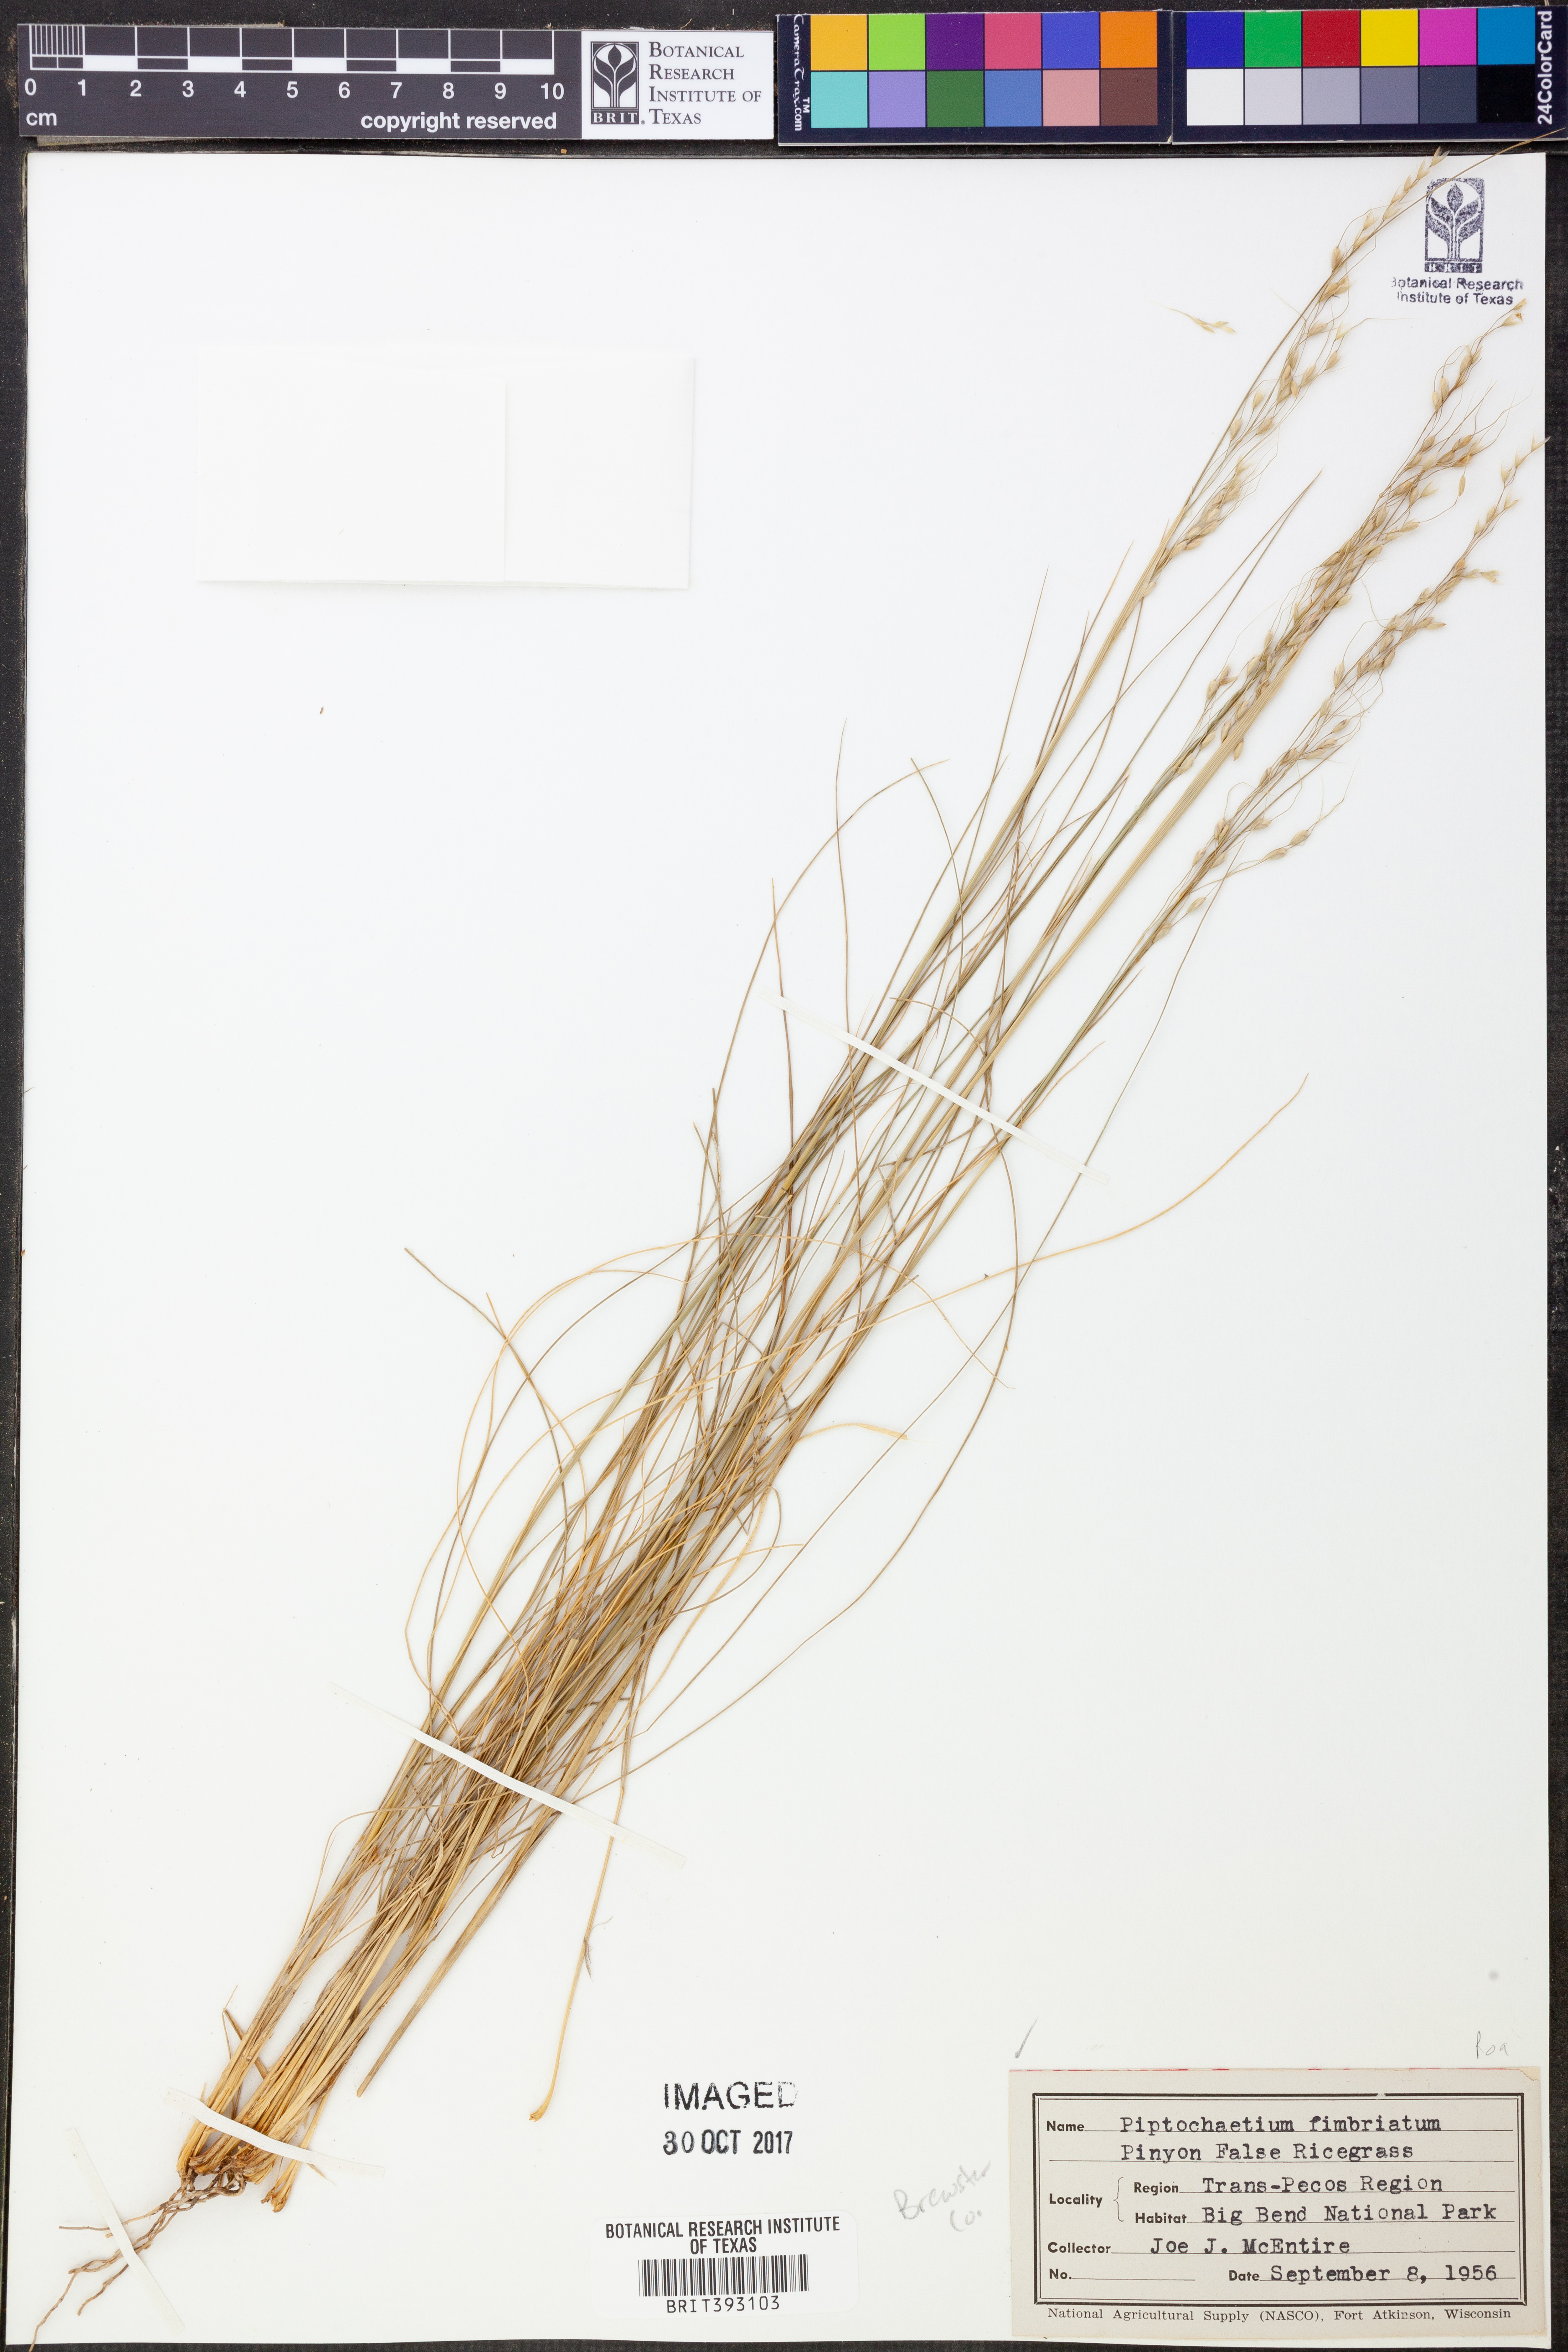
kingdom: Plantae
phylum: Tracheophyta
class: Liliopsida
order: Poales
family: Poaceae
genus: Piptochaetium
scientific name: Piptochaetium fimbriatum
